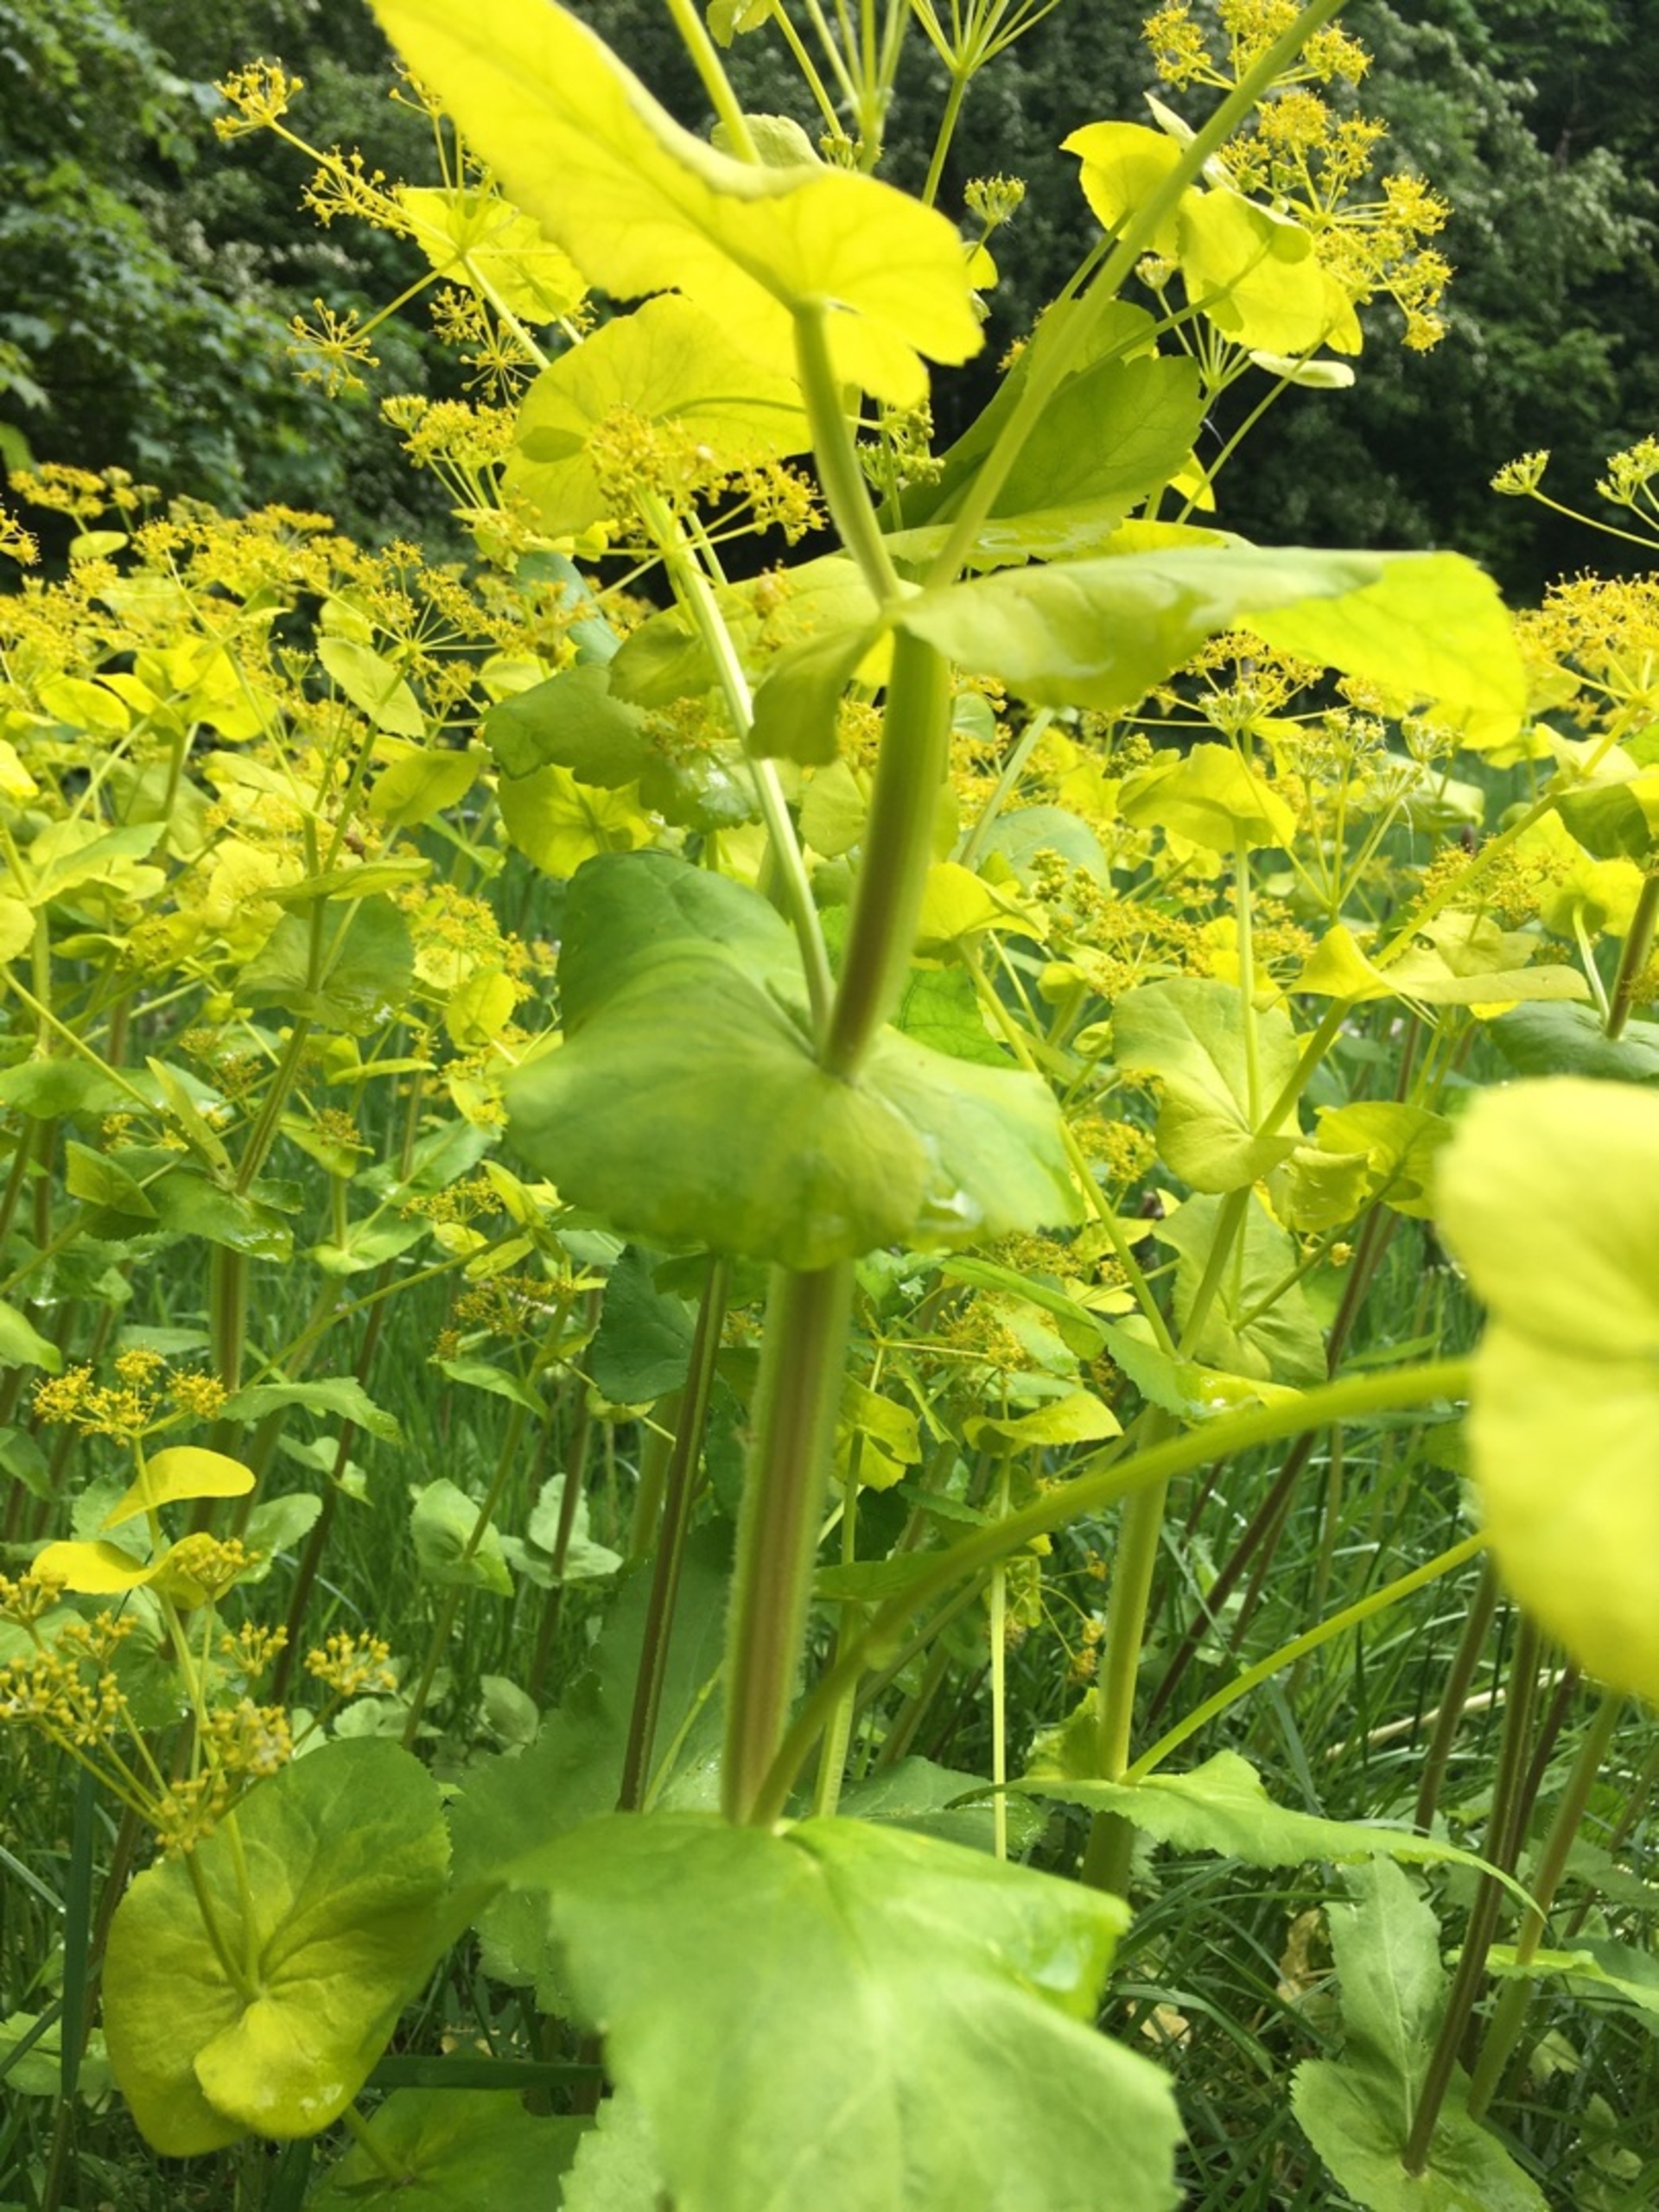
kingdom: Plantae
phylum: Tracheophyta
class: Magnoliopsida
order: Apiales
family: Apiaceae
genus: Smyrnium
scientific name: Smyrnium perfoliatum
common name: Lundgylden
